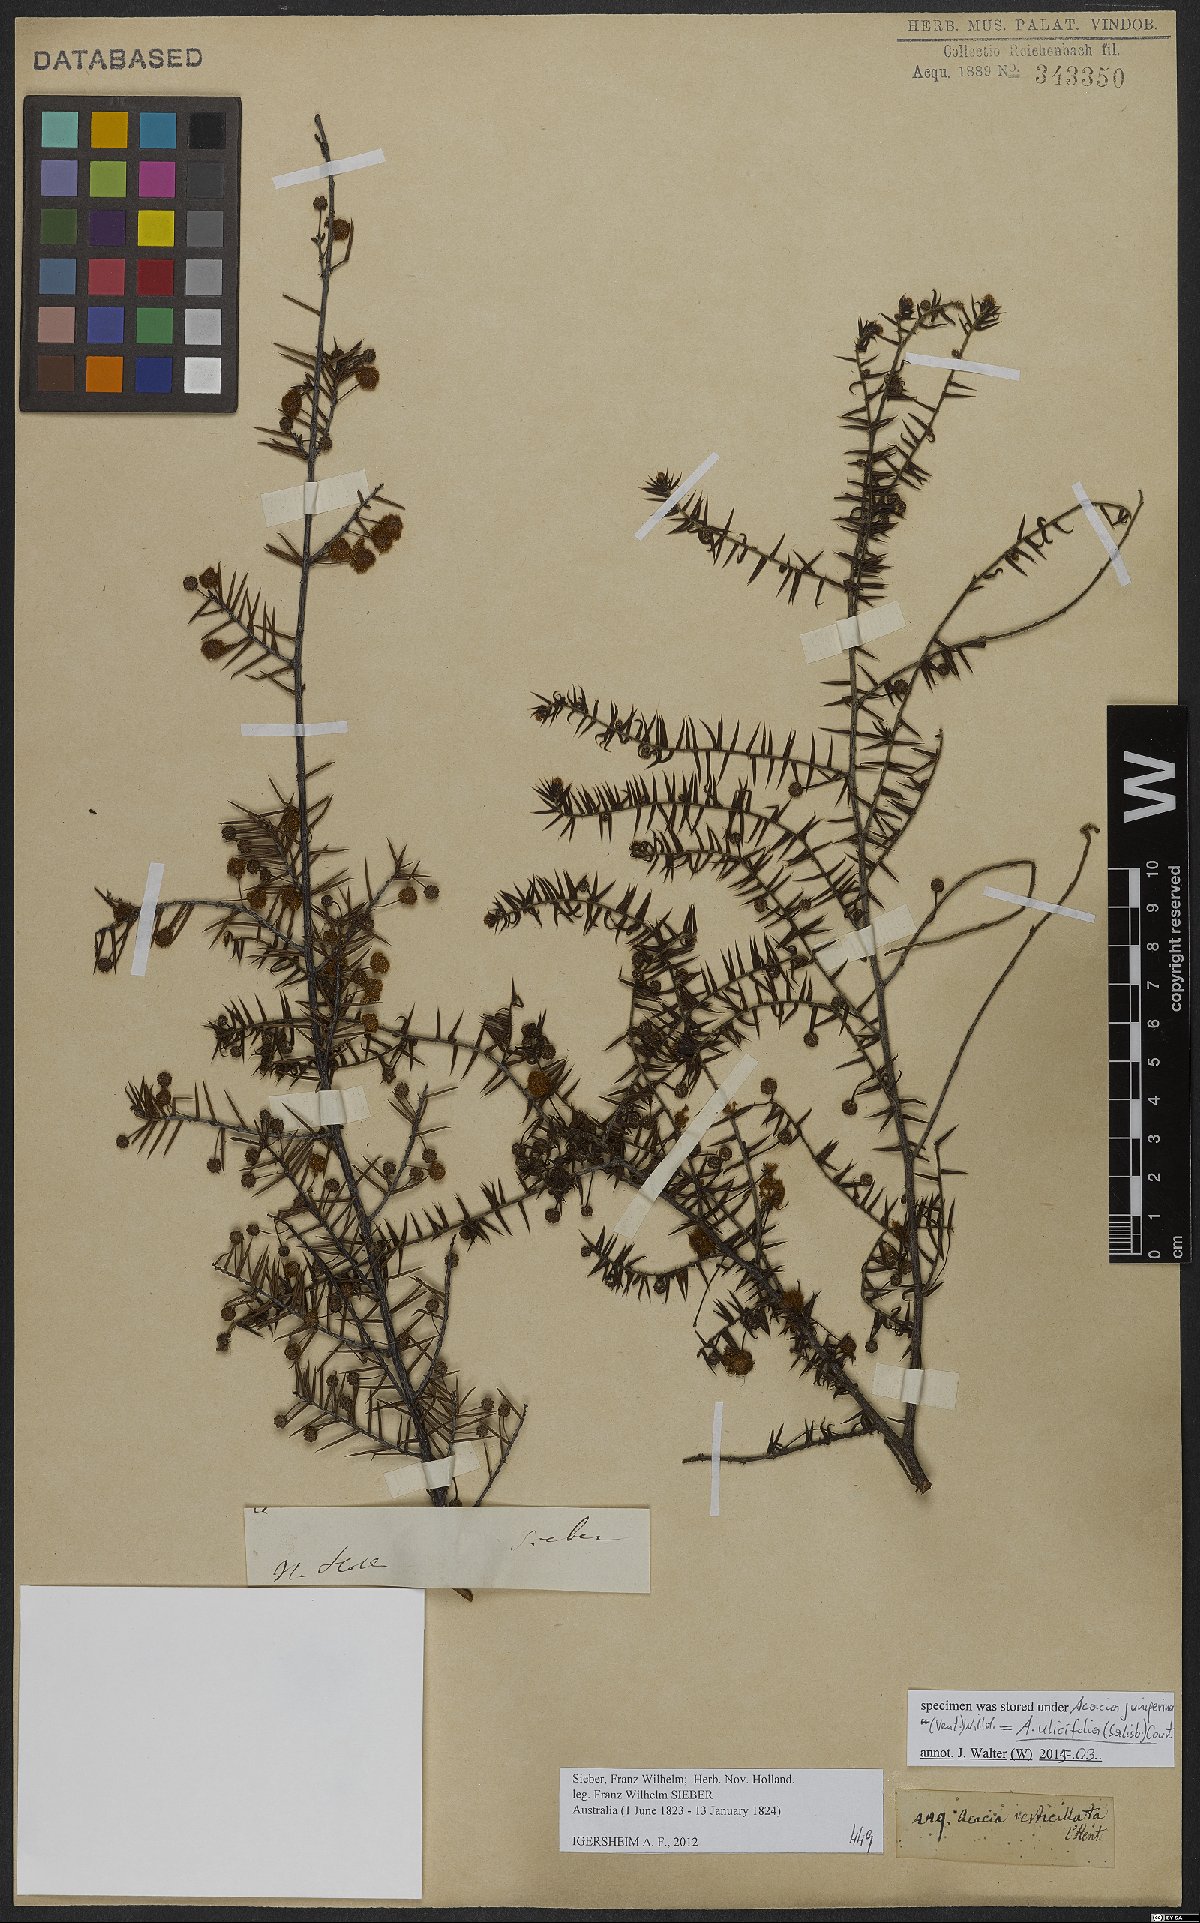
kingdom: Plantae
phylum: Tracheophyta
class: Magnoliopsida
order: Fabales
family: Fabaceae
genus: Acacia
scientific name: Acacia ulicifolia
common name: Juniper wattle
